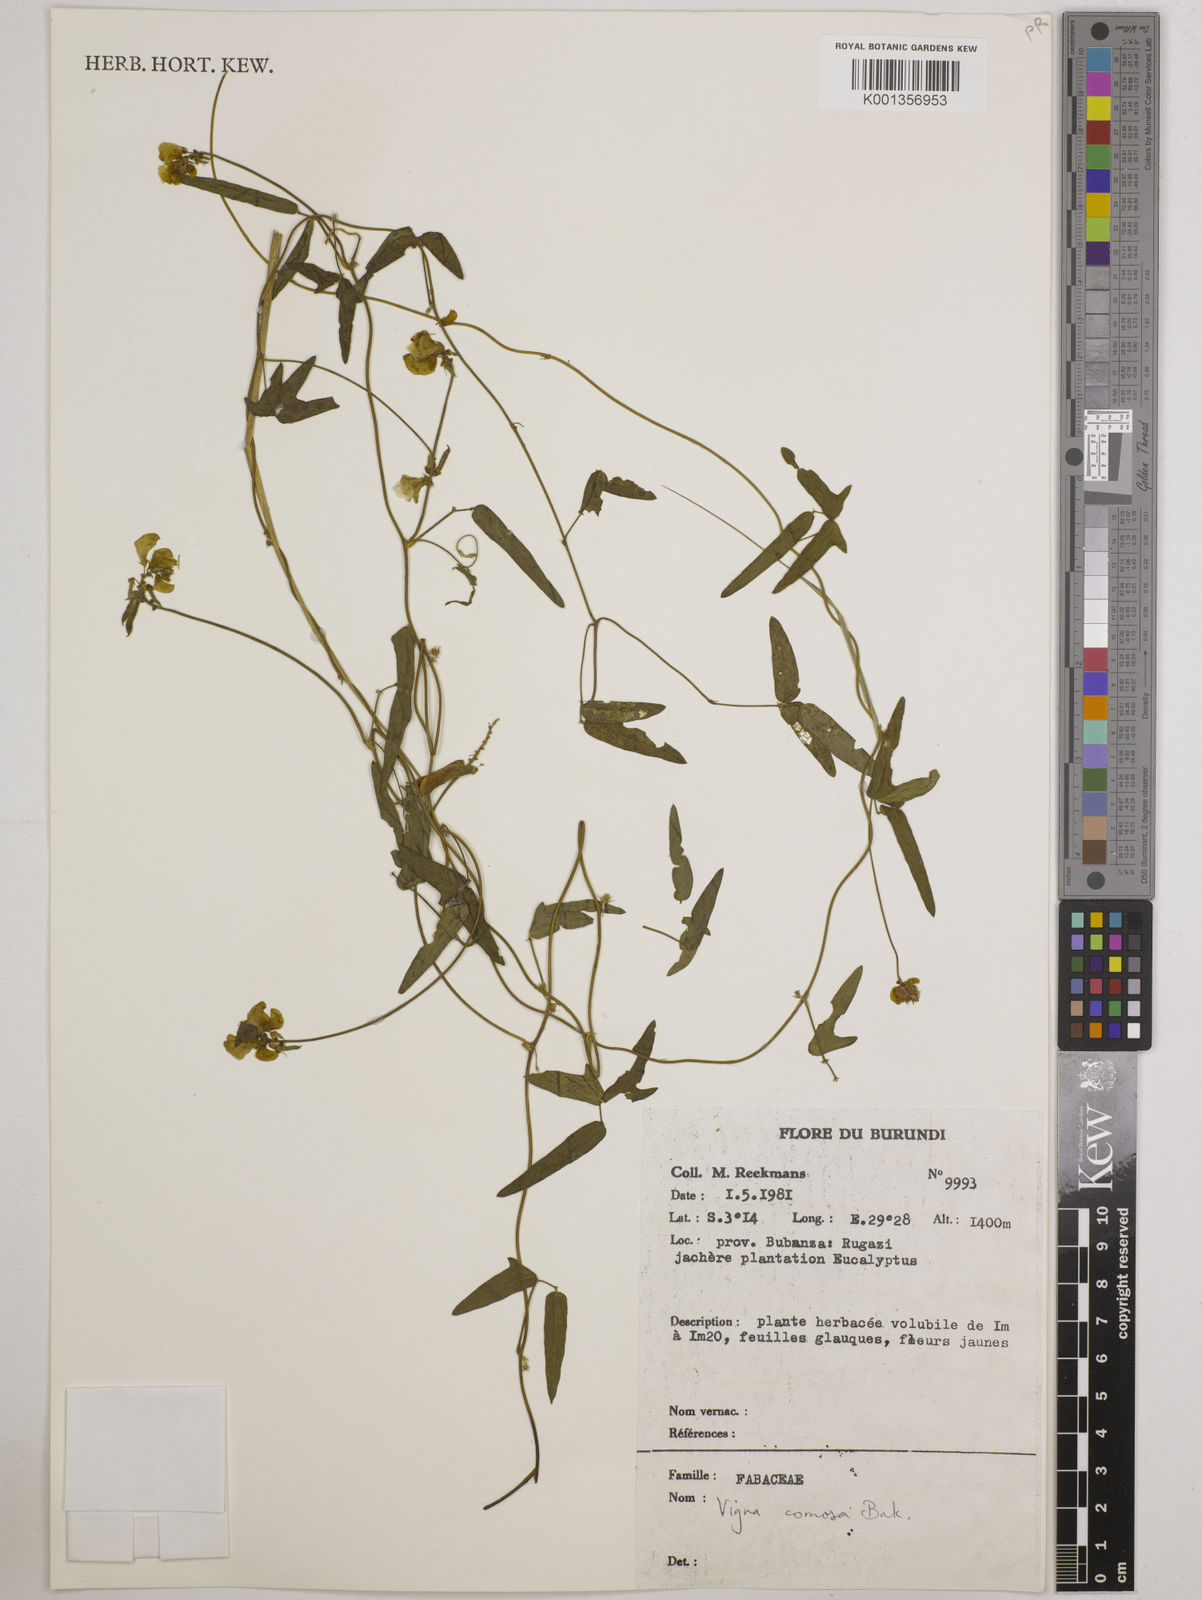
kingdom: Plantae
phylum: Tracheophyta
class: Magnoliopsida
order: Fabales
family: Fabaceae
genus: Vigna
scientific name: Vigna comosa
